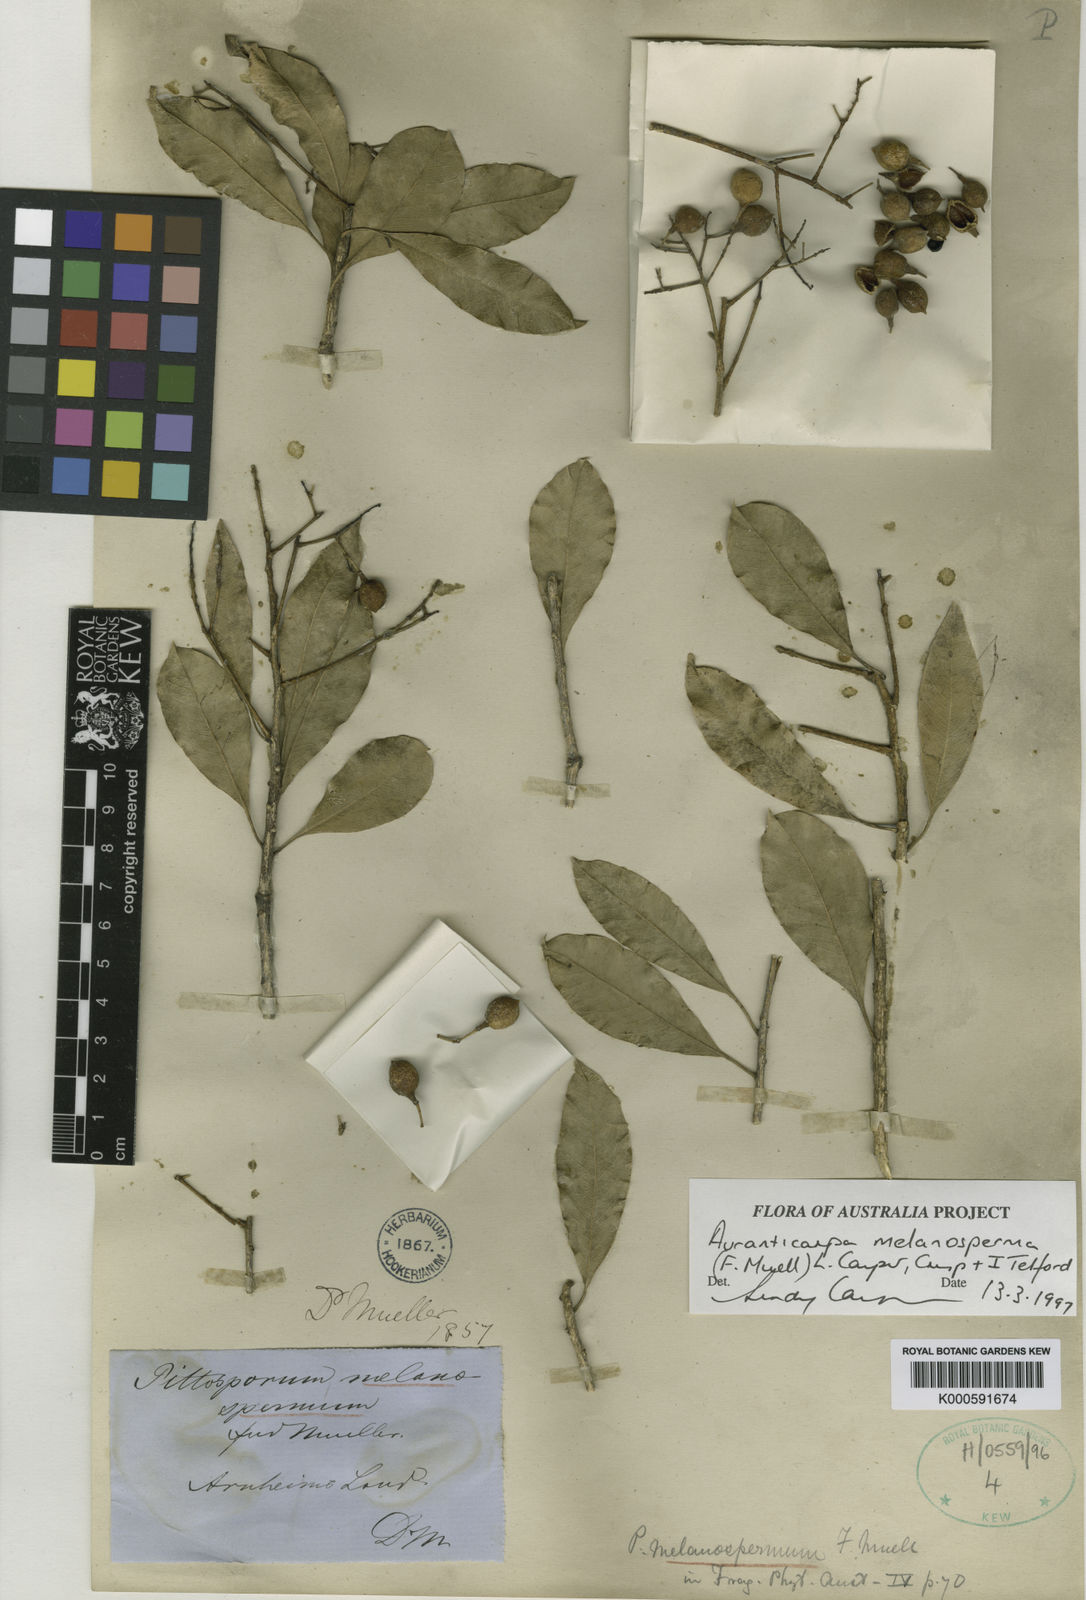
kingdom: Plantae
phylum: Tracheophyta
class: Magnoliopsida
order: Apiales
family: Pittosporaceae
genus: Auranticarpa
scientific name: Auranticarpa melanosperma
